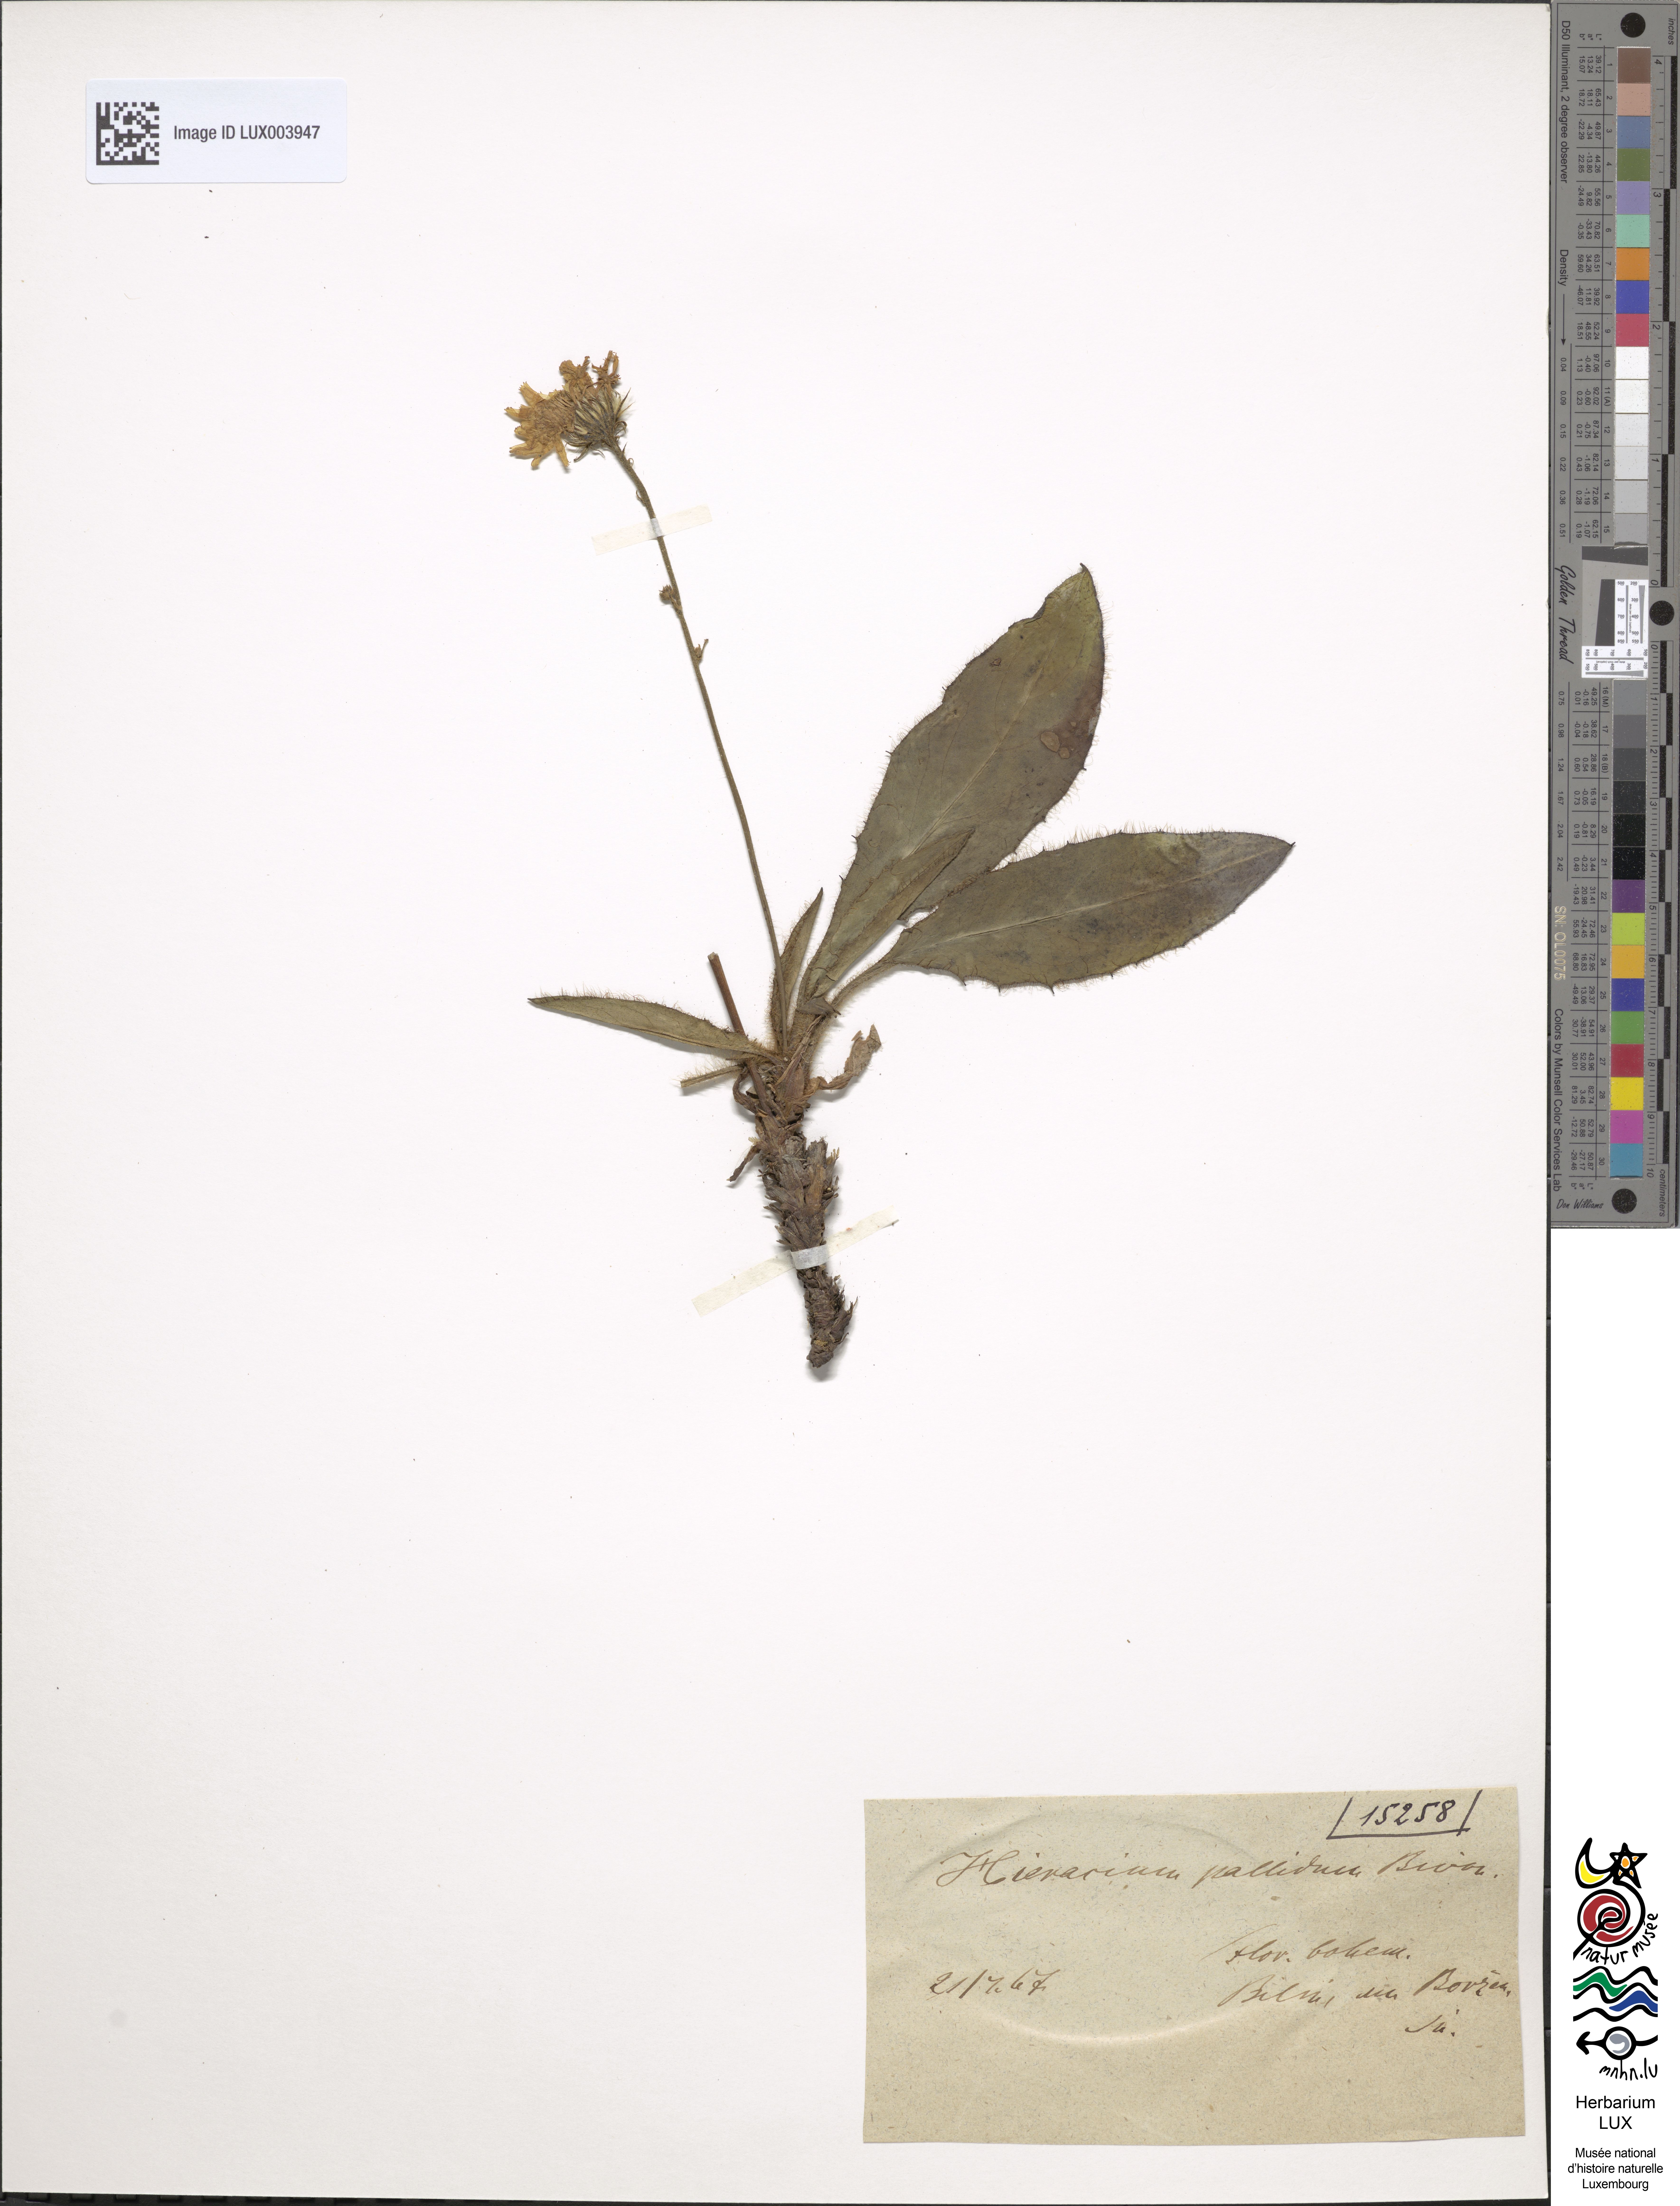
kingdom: Plantae
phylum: Tracheophyta
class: Magnoliopsida
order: Asterales
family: Asteraceae
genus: Hieracium
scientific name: Hieracium pallidum
